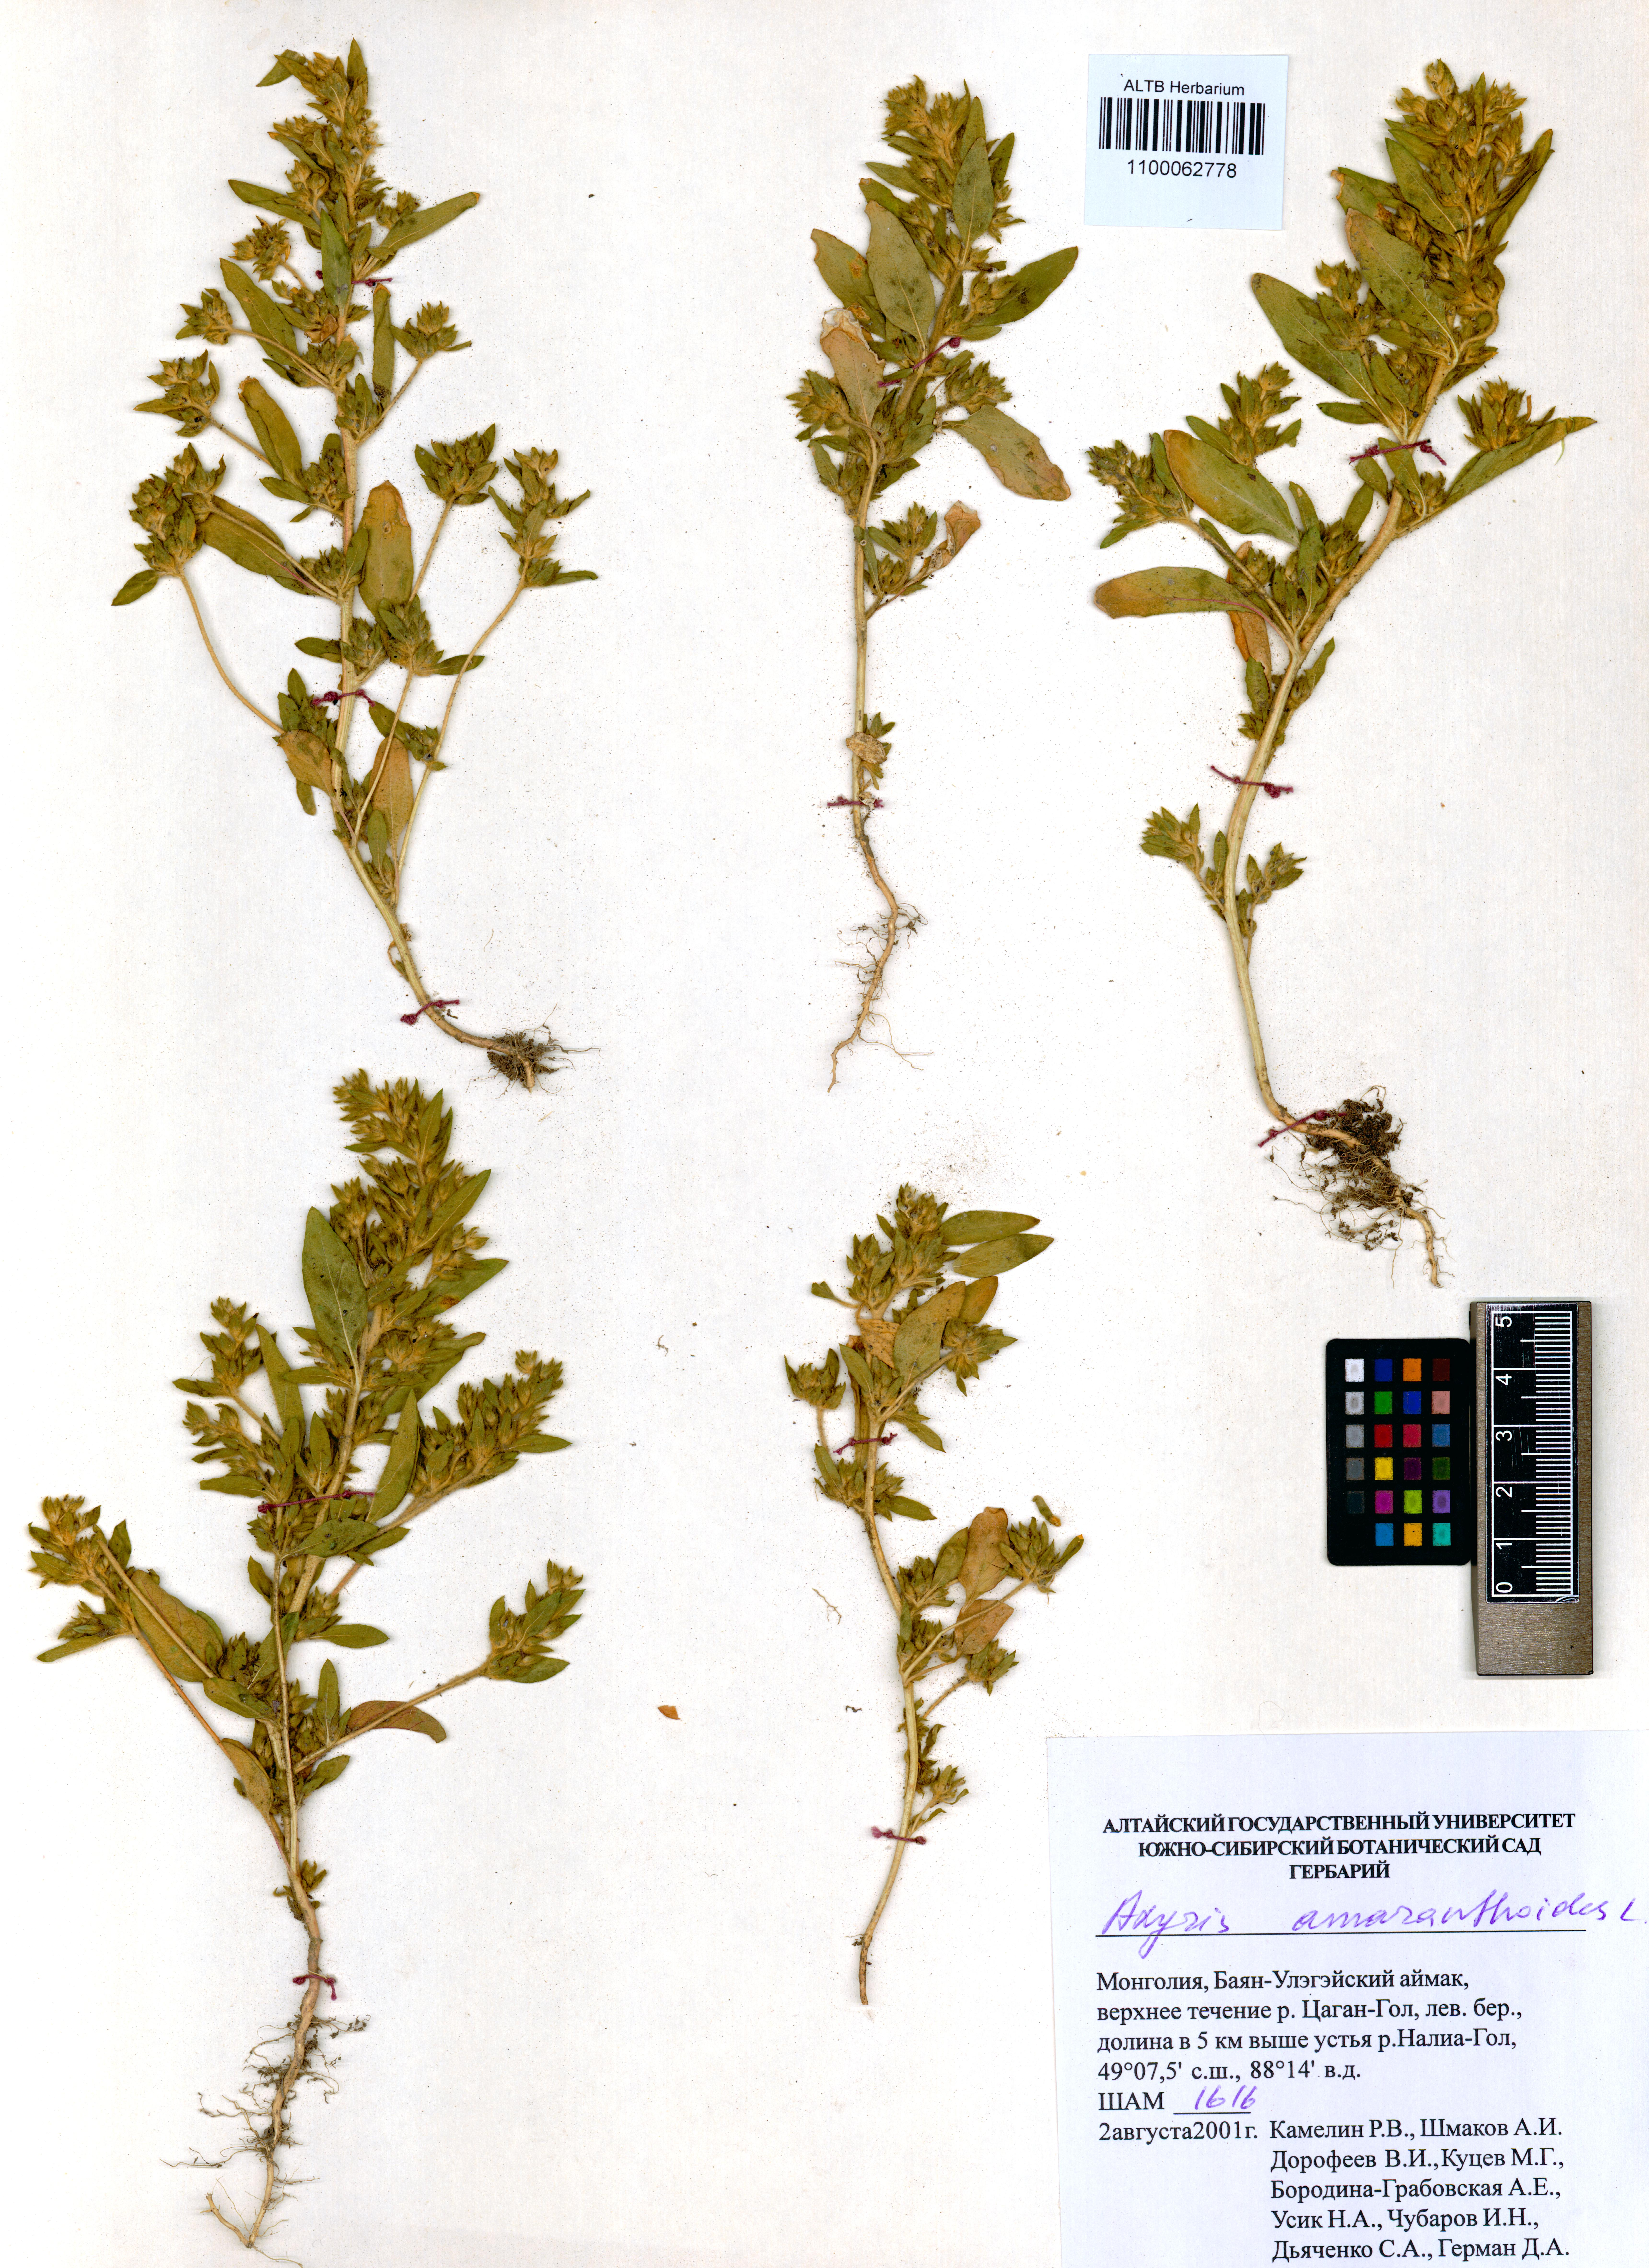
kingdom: Plantae
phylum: Tracheophyta
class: Magnoliopsida
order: Caryophyllales
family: Amaranthaceae
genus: Axyris
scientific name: Axyris amaranthoides
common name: Russian pigweed
